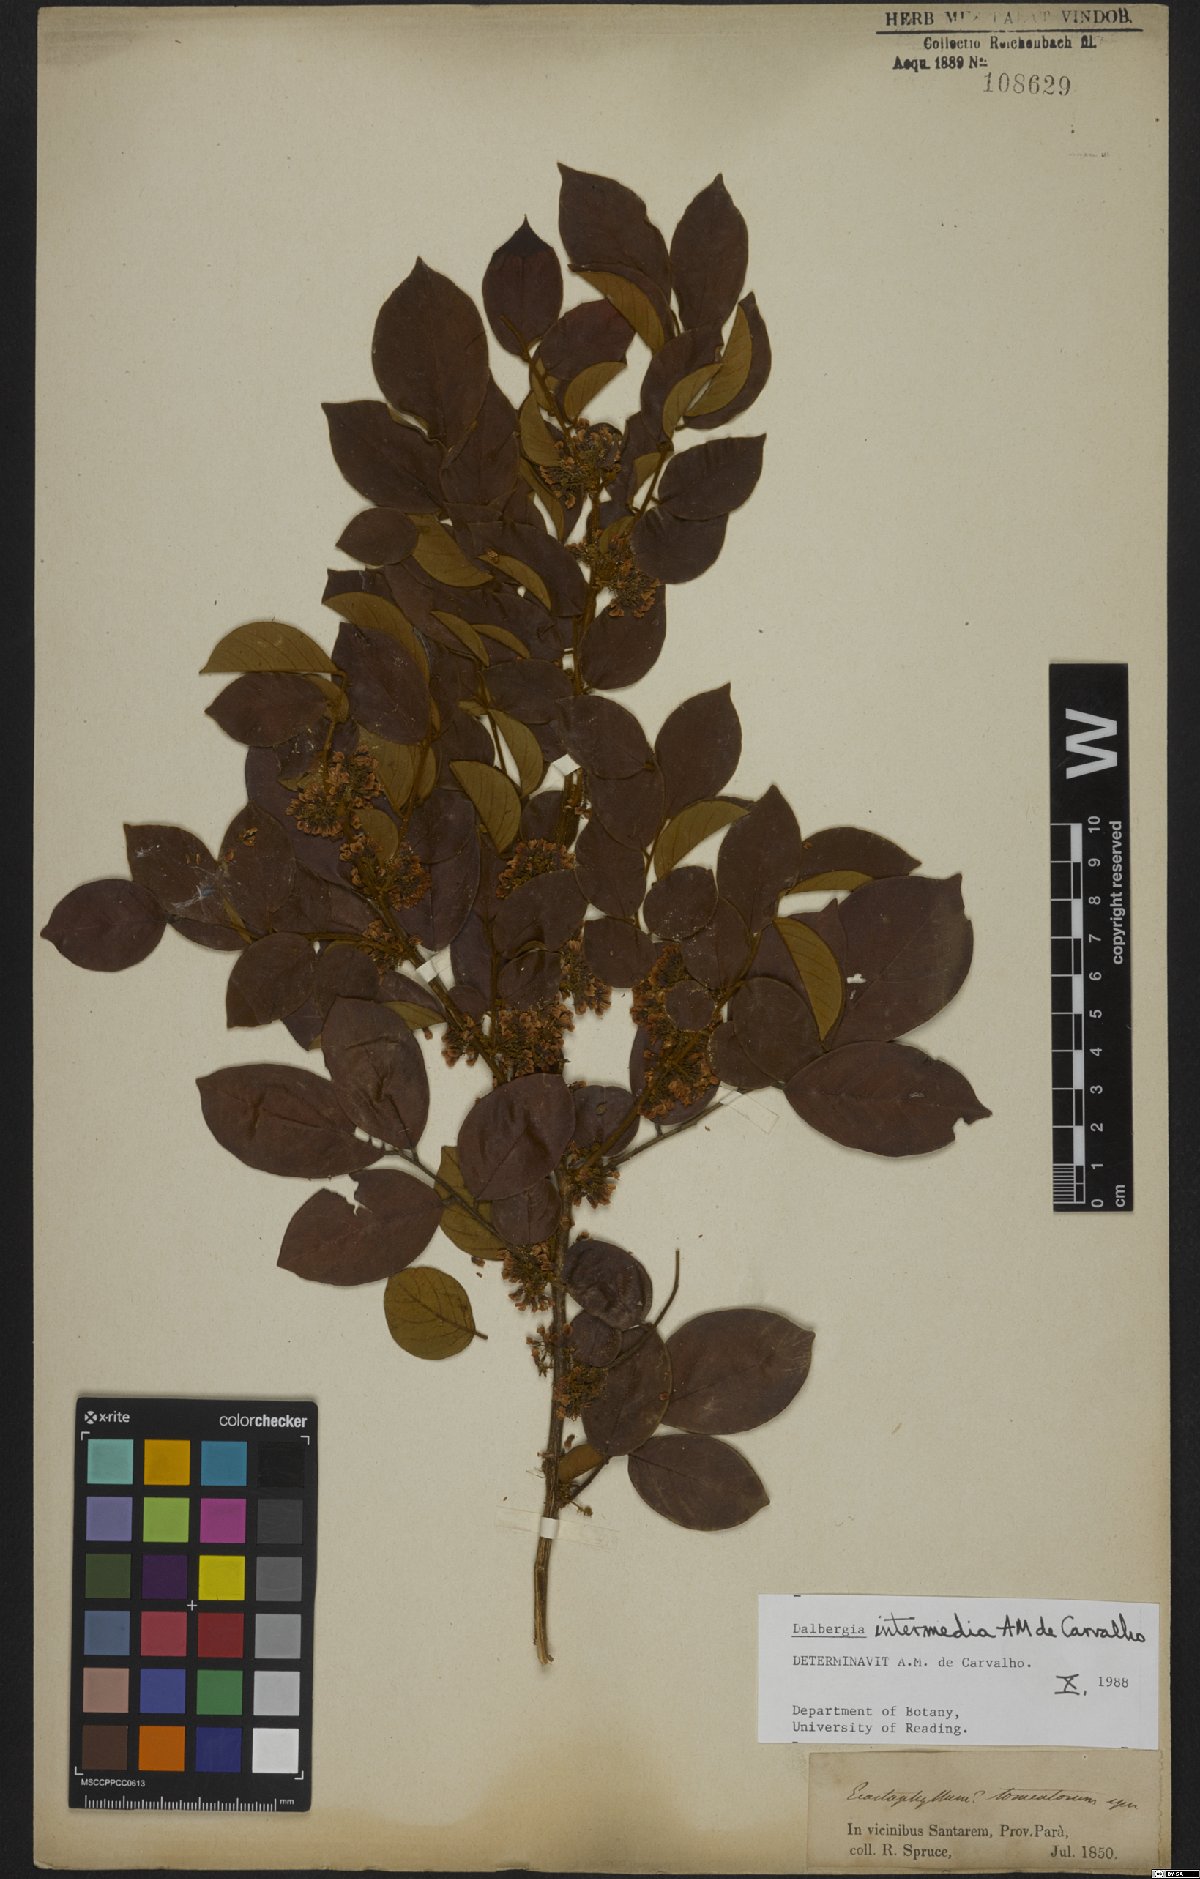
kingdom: Plantae
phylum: Tracheophyta
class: Magnoliopsida
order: Fabales
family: Fabaceae
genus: Dalbergia
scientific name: Dalbergia intermedia
